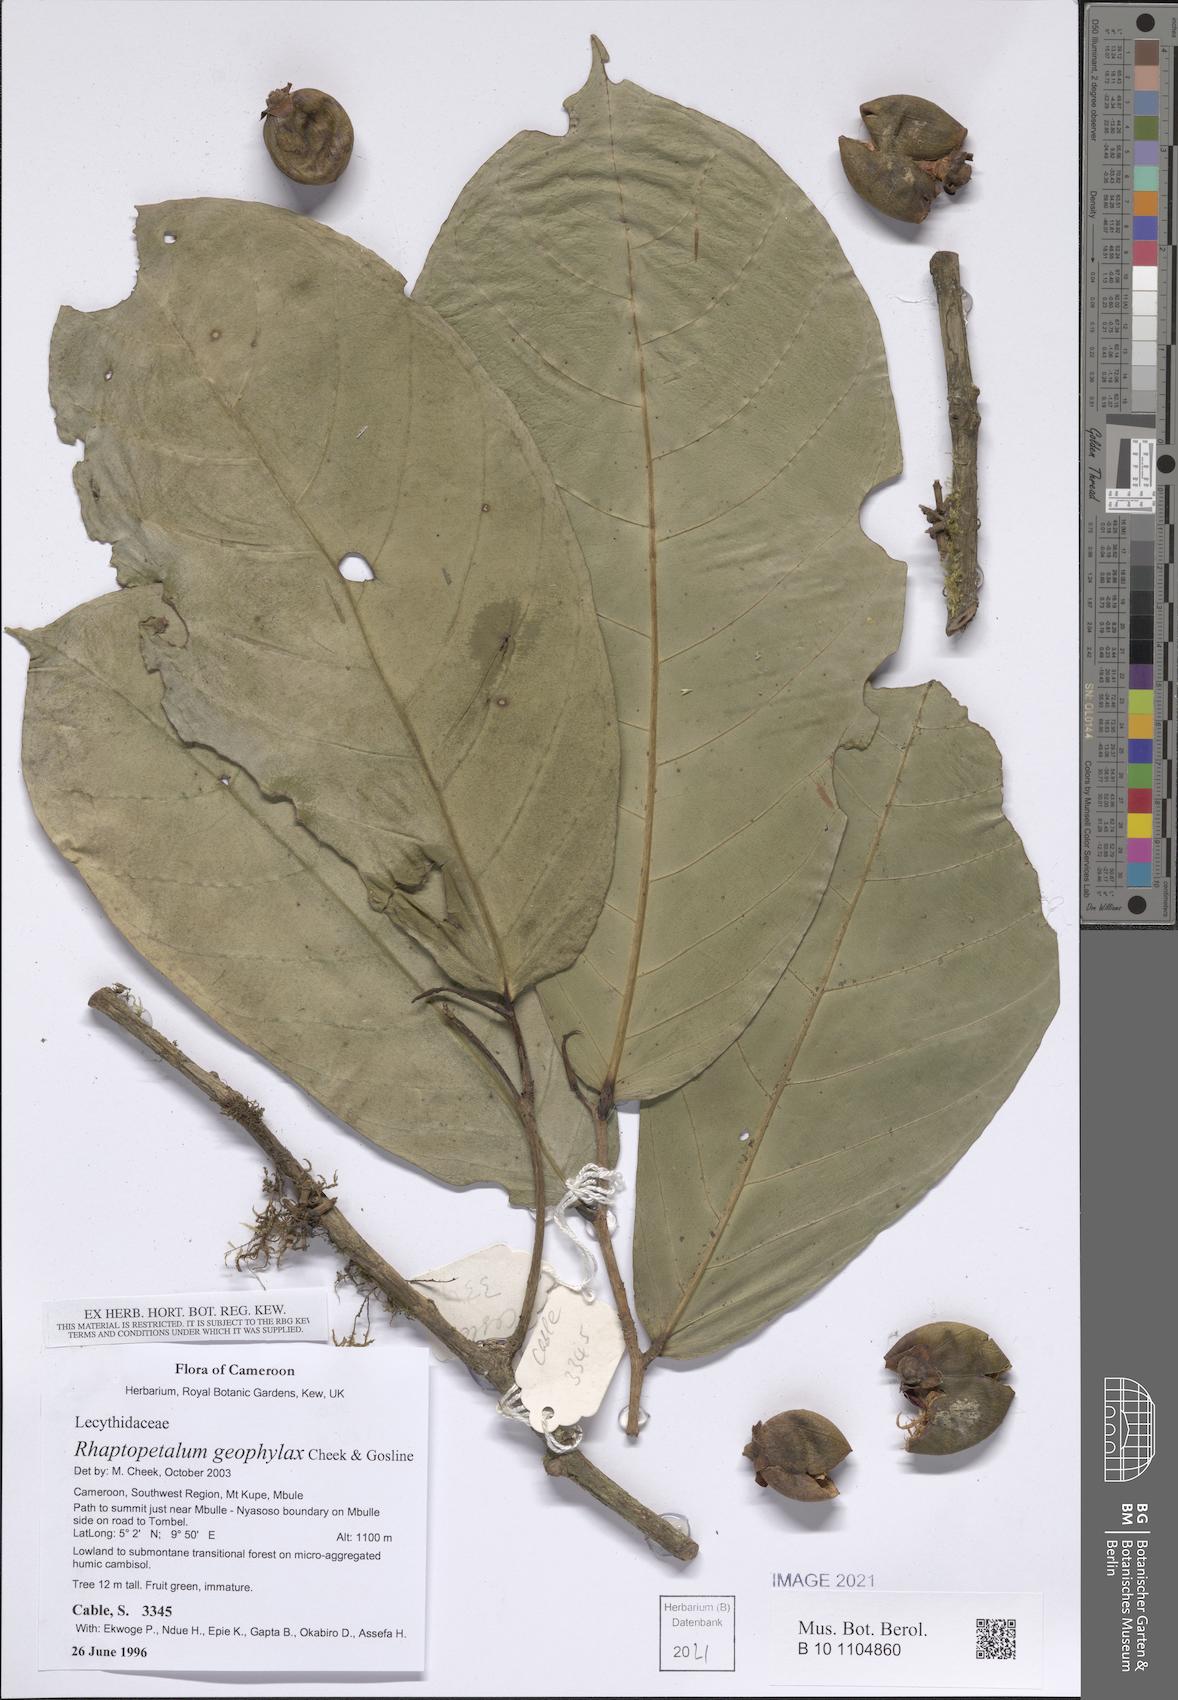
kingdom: Plantae
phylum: Tracheophyta
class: Magnoliopsida
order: Ericales
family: Lecythidaceae
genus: Rhaptopetalum
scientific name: Rhaptopetalum geophylax
